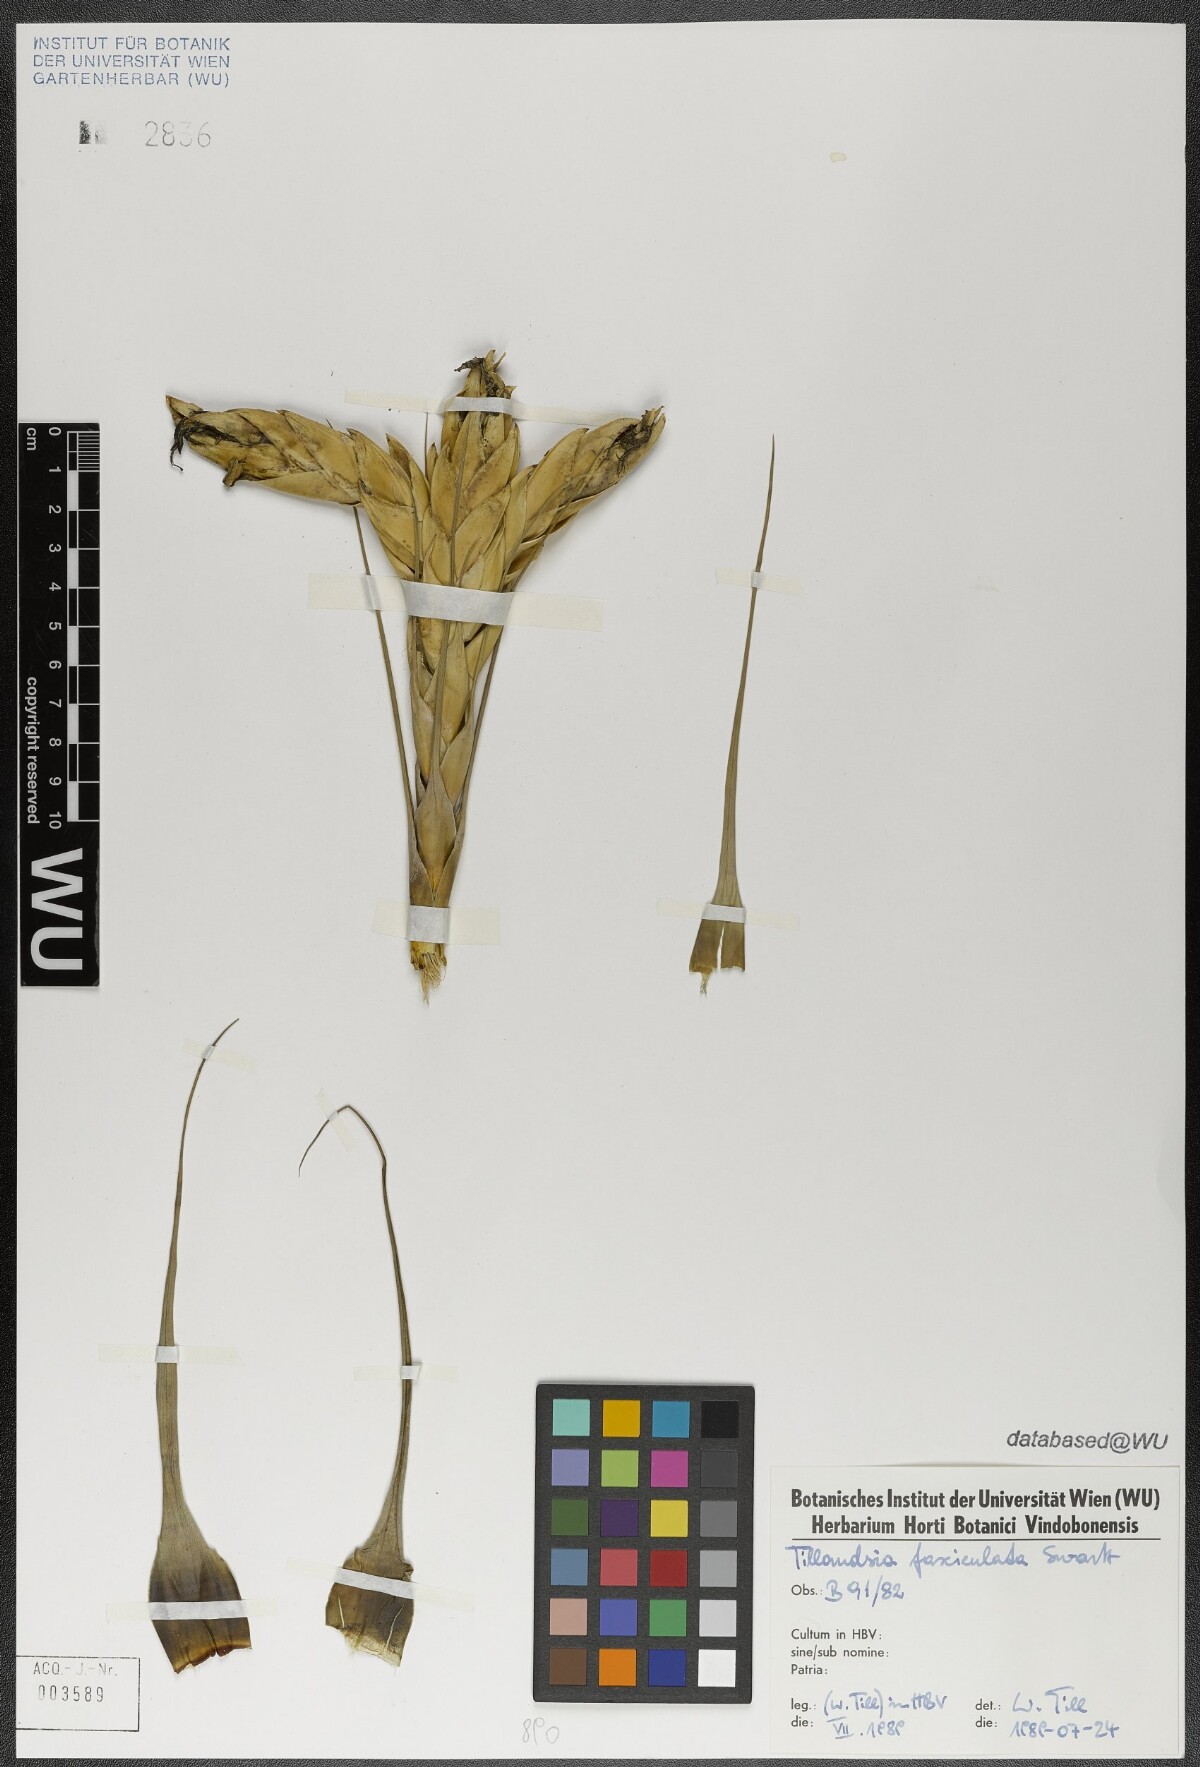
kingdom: Plantae
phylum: Tracheophyta
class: Liliopsida
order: Poales
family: Bromeliaceae
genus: Tillandsia
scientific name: Tillandsia fasciculata
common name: Giant airplant
